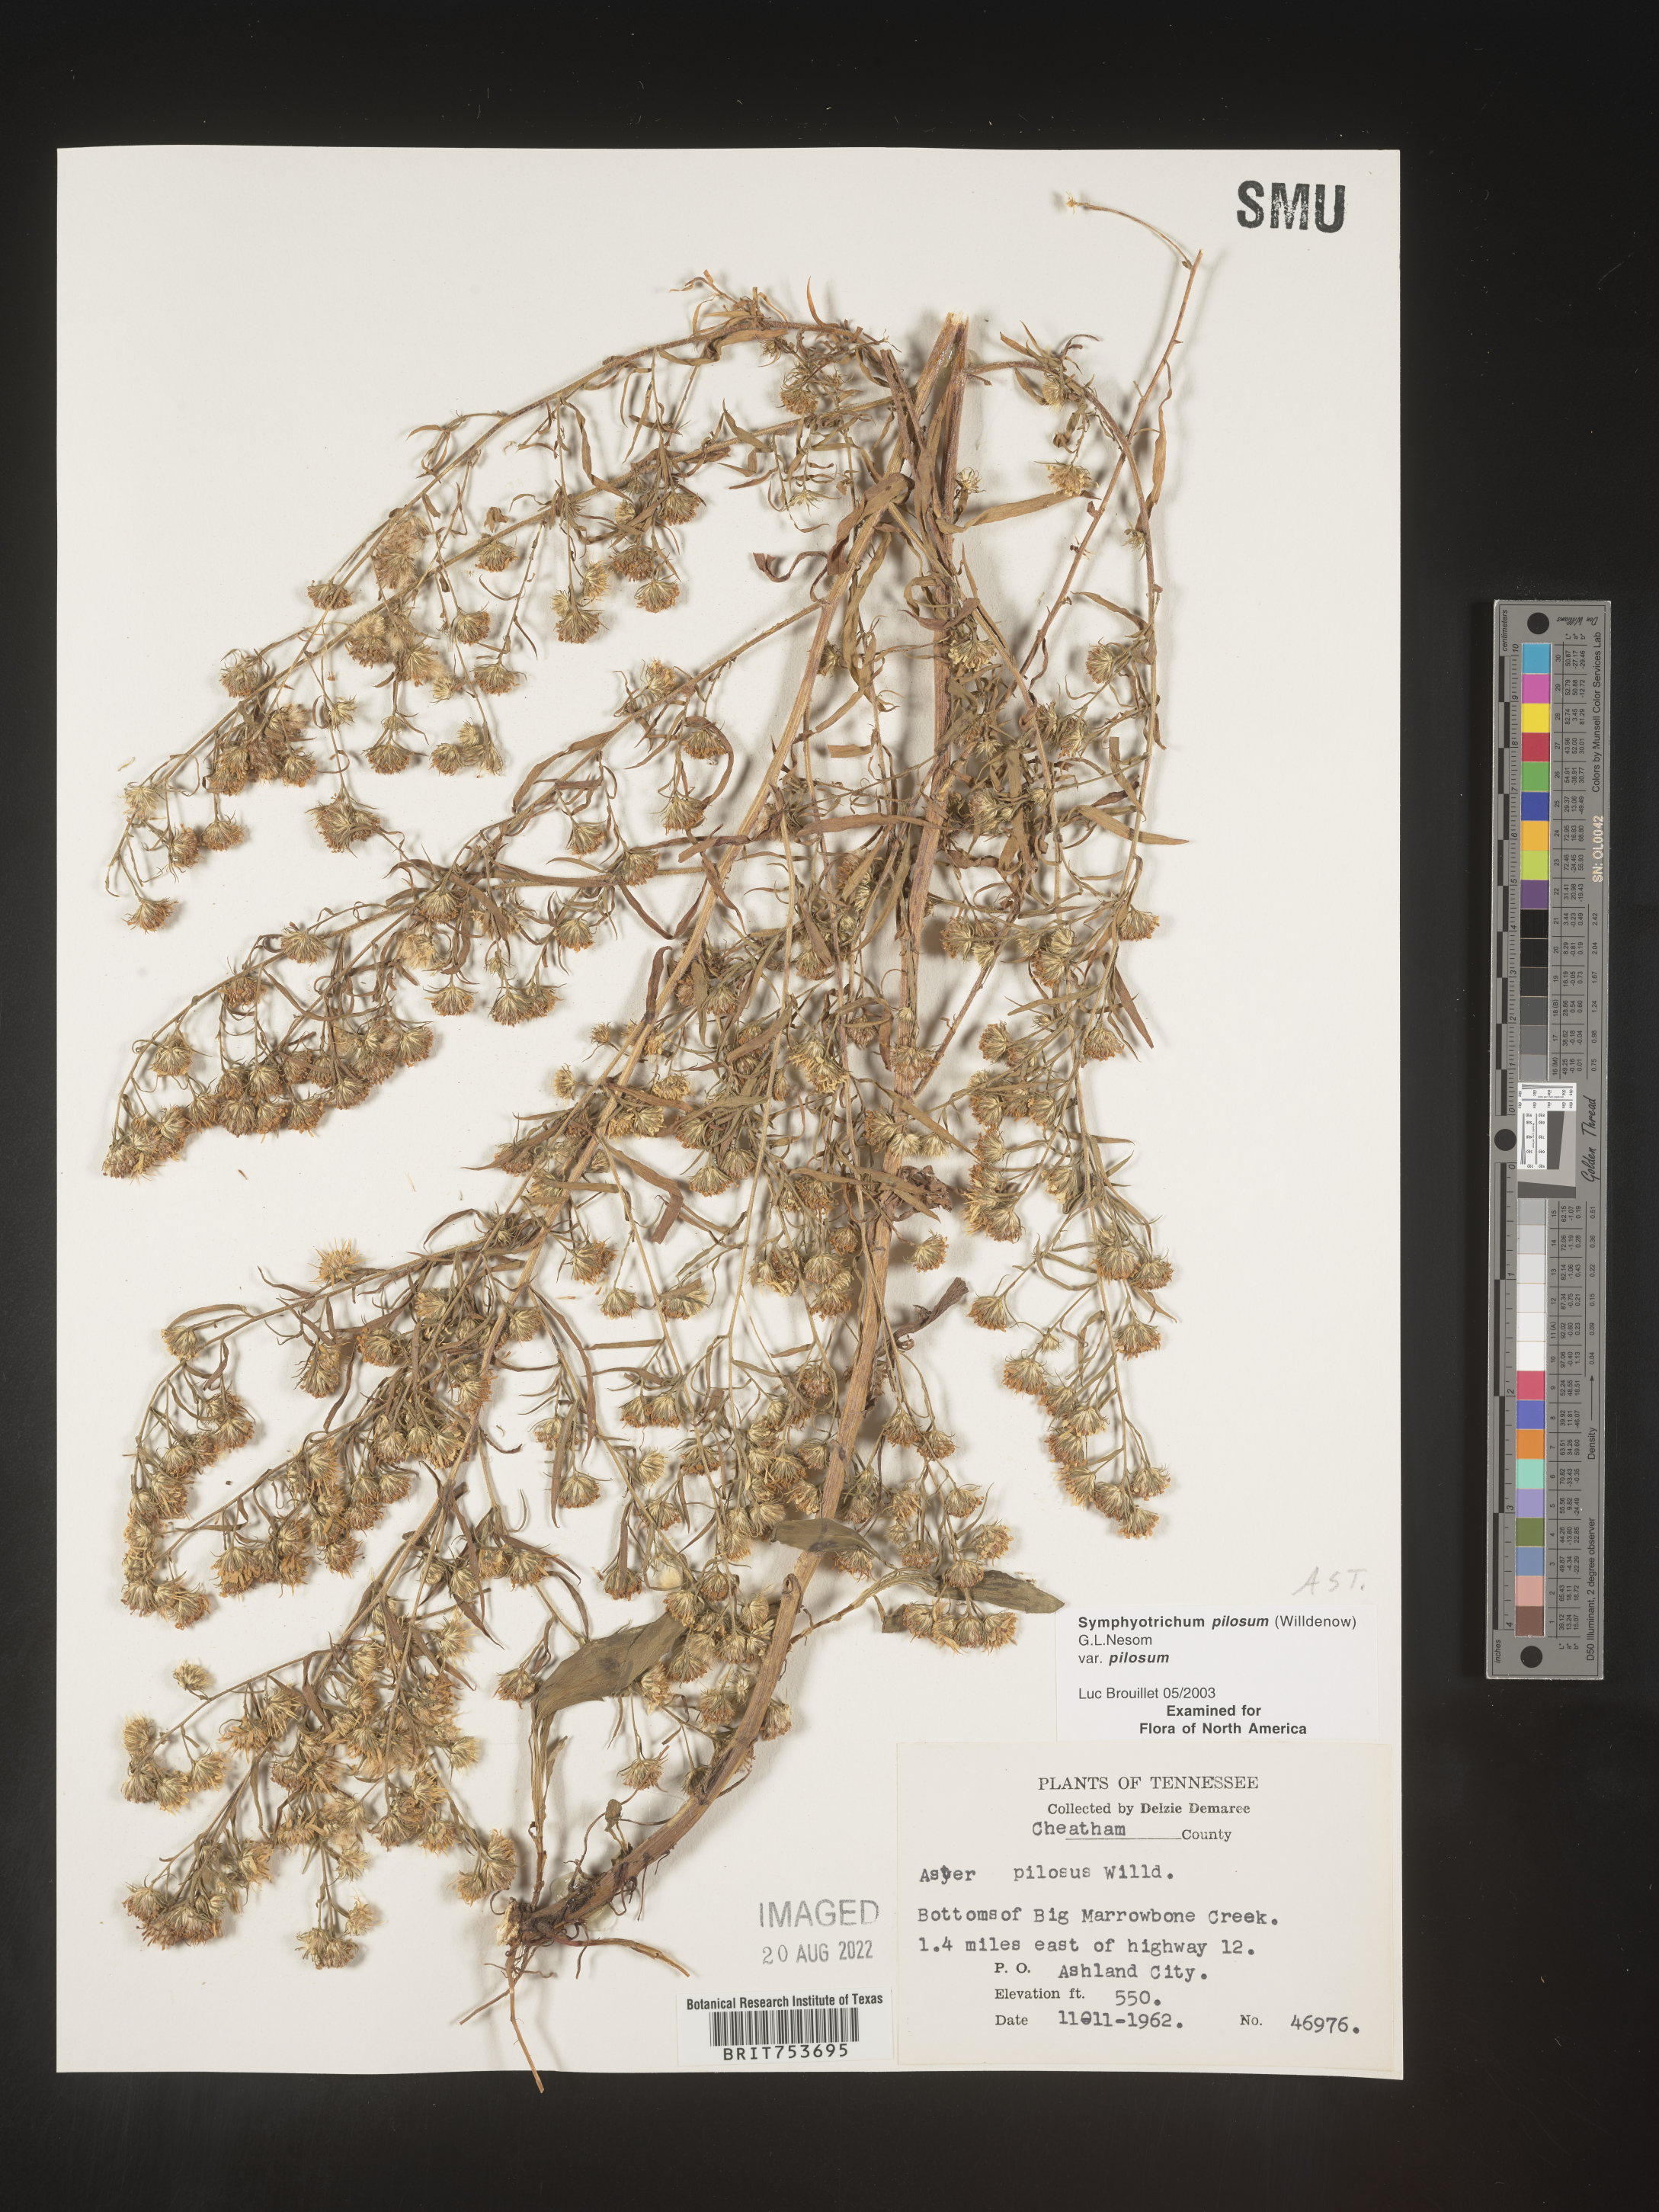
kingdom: Plantae
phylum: Tracheophyta
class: Magnoliopsida
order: Asterales
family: Asteraceae
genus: Symphyotrichum
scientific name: Symphyotrichum pilosum
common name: Awl aster
